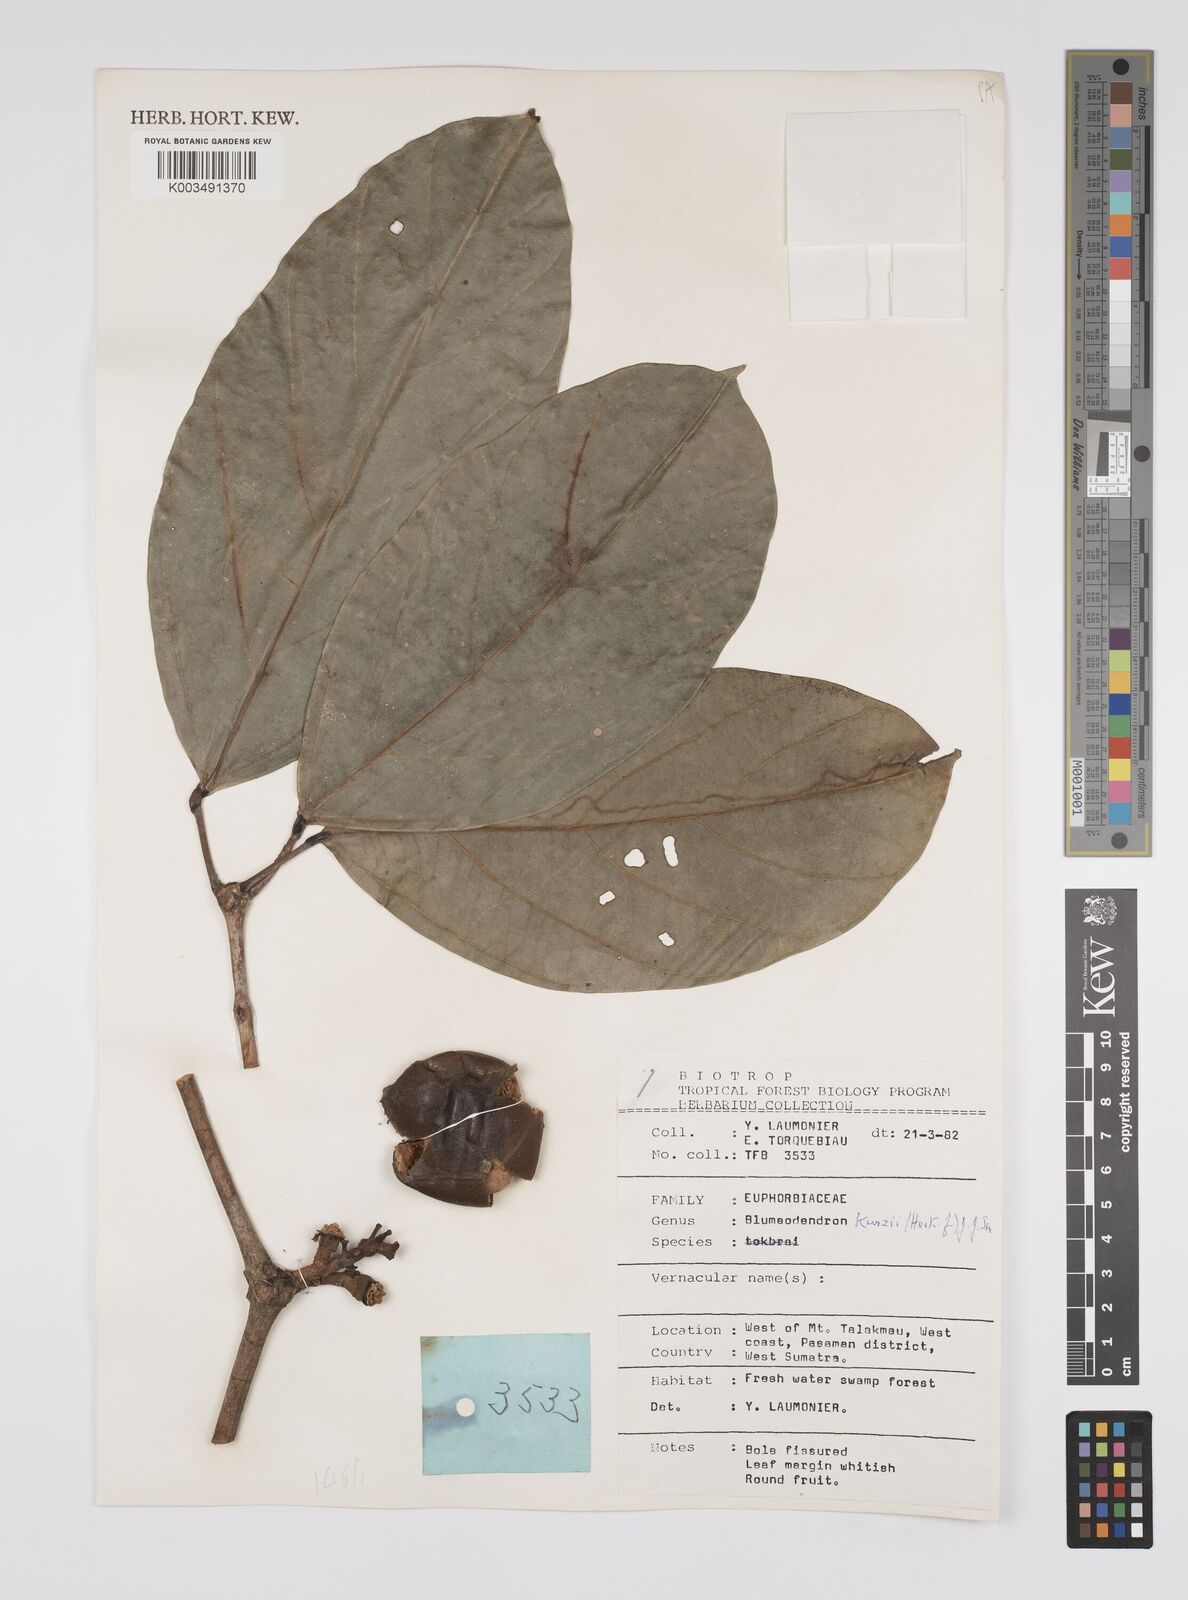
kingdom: Plantae
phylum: Tracheophyta
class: Magnoliopsida
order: Malpighiales
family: Euphorbiaceae
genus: Blumeodendron
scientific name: Blumeodendron kurzii
